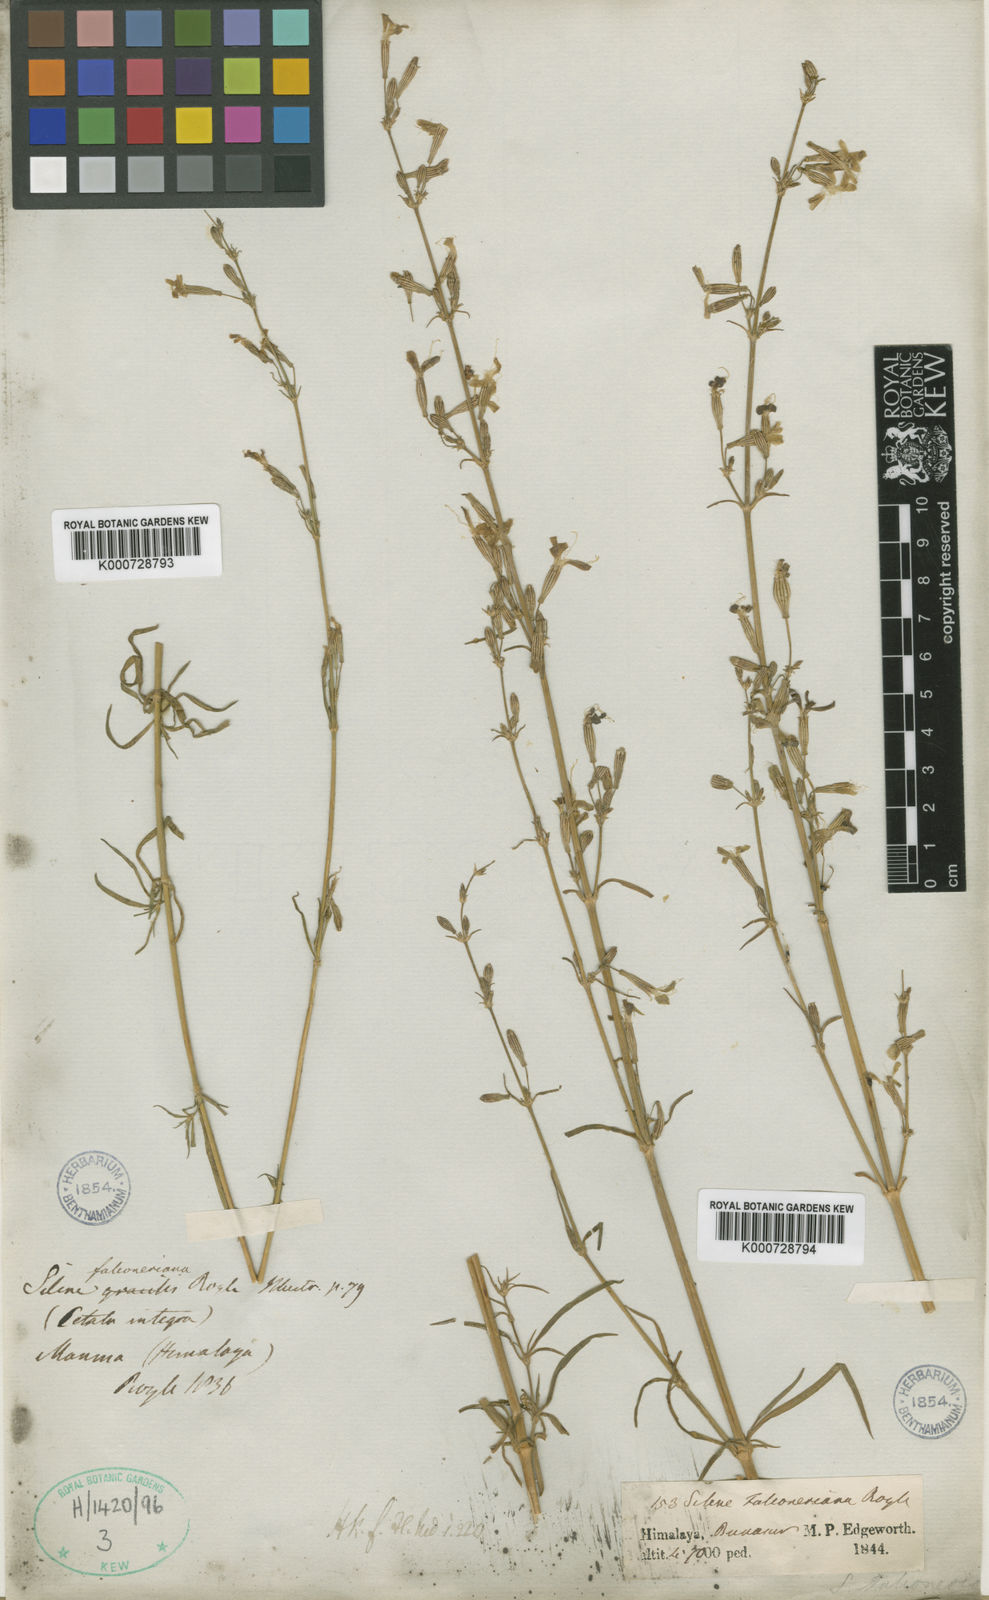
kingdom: Plantae
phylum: Tracheophyta
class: Magnoliopsida
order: Caryophyllales
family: Caryophyllaceae
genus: Silene
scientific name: Silene falconeriana
